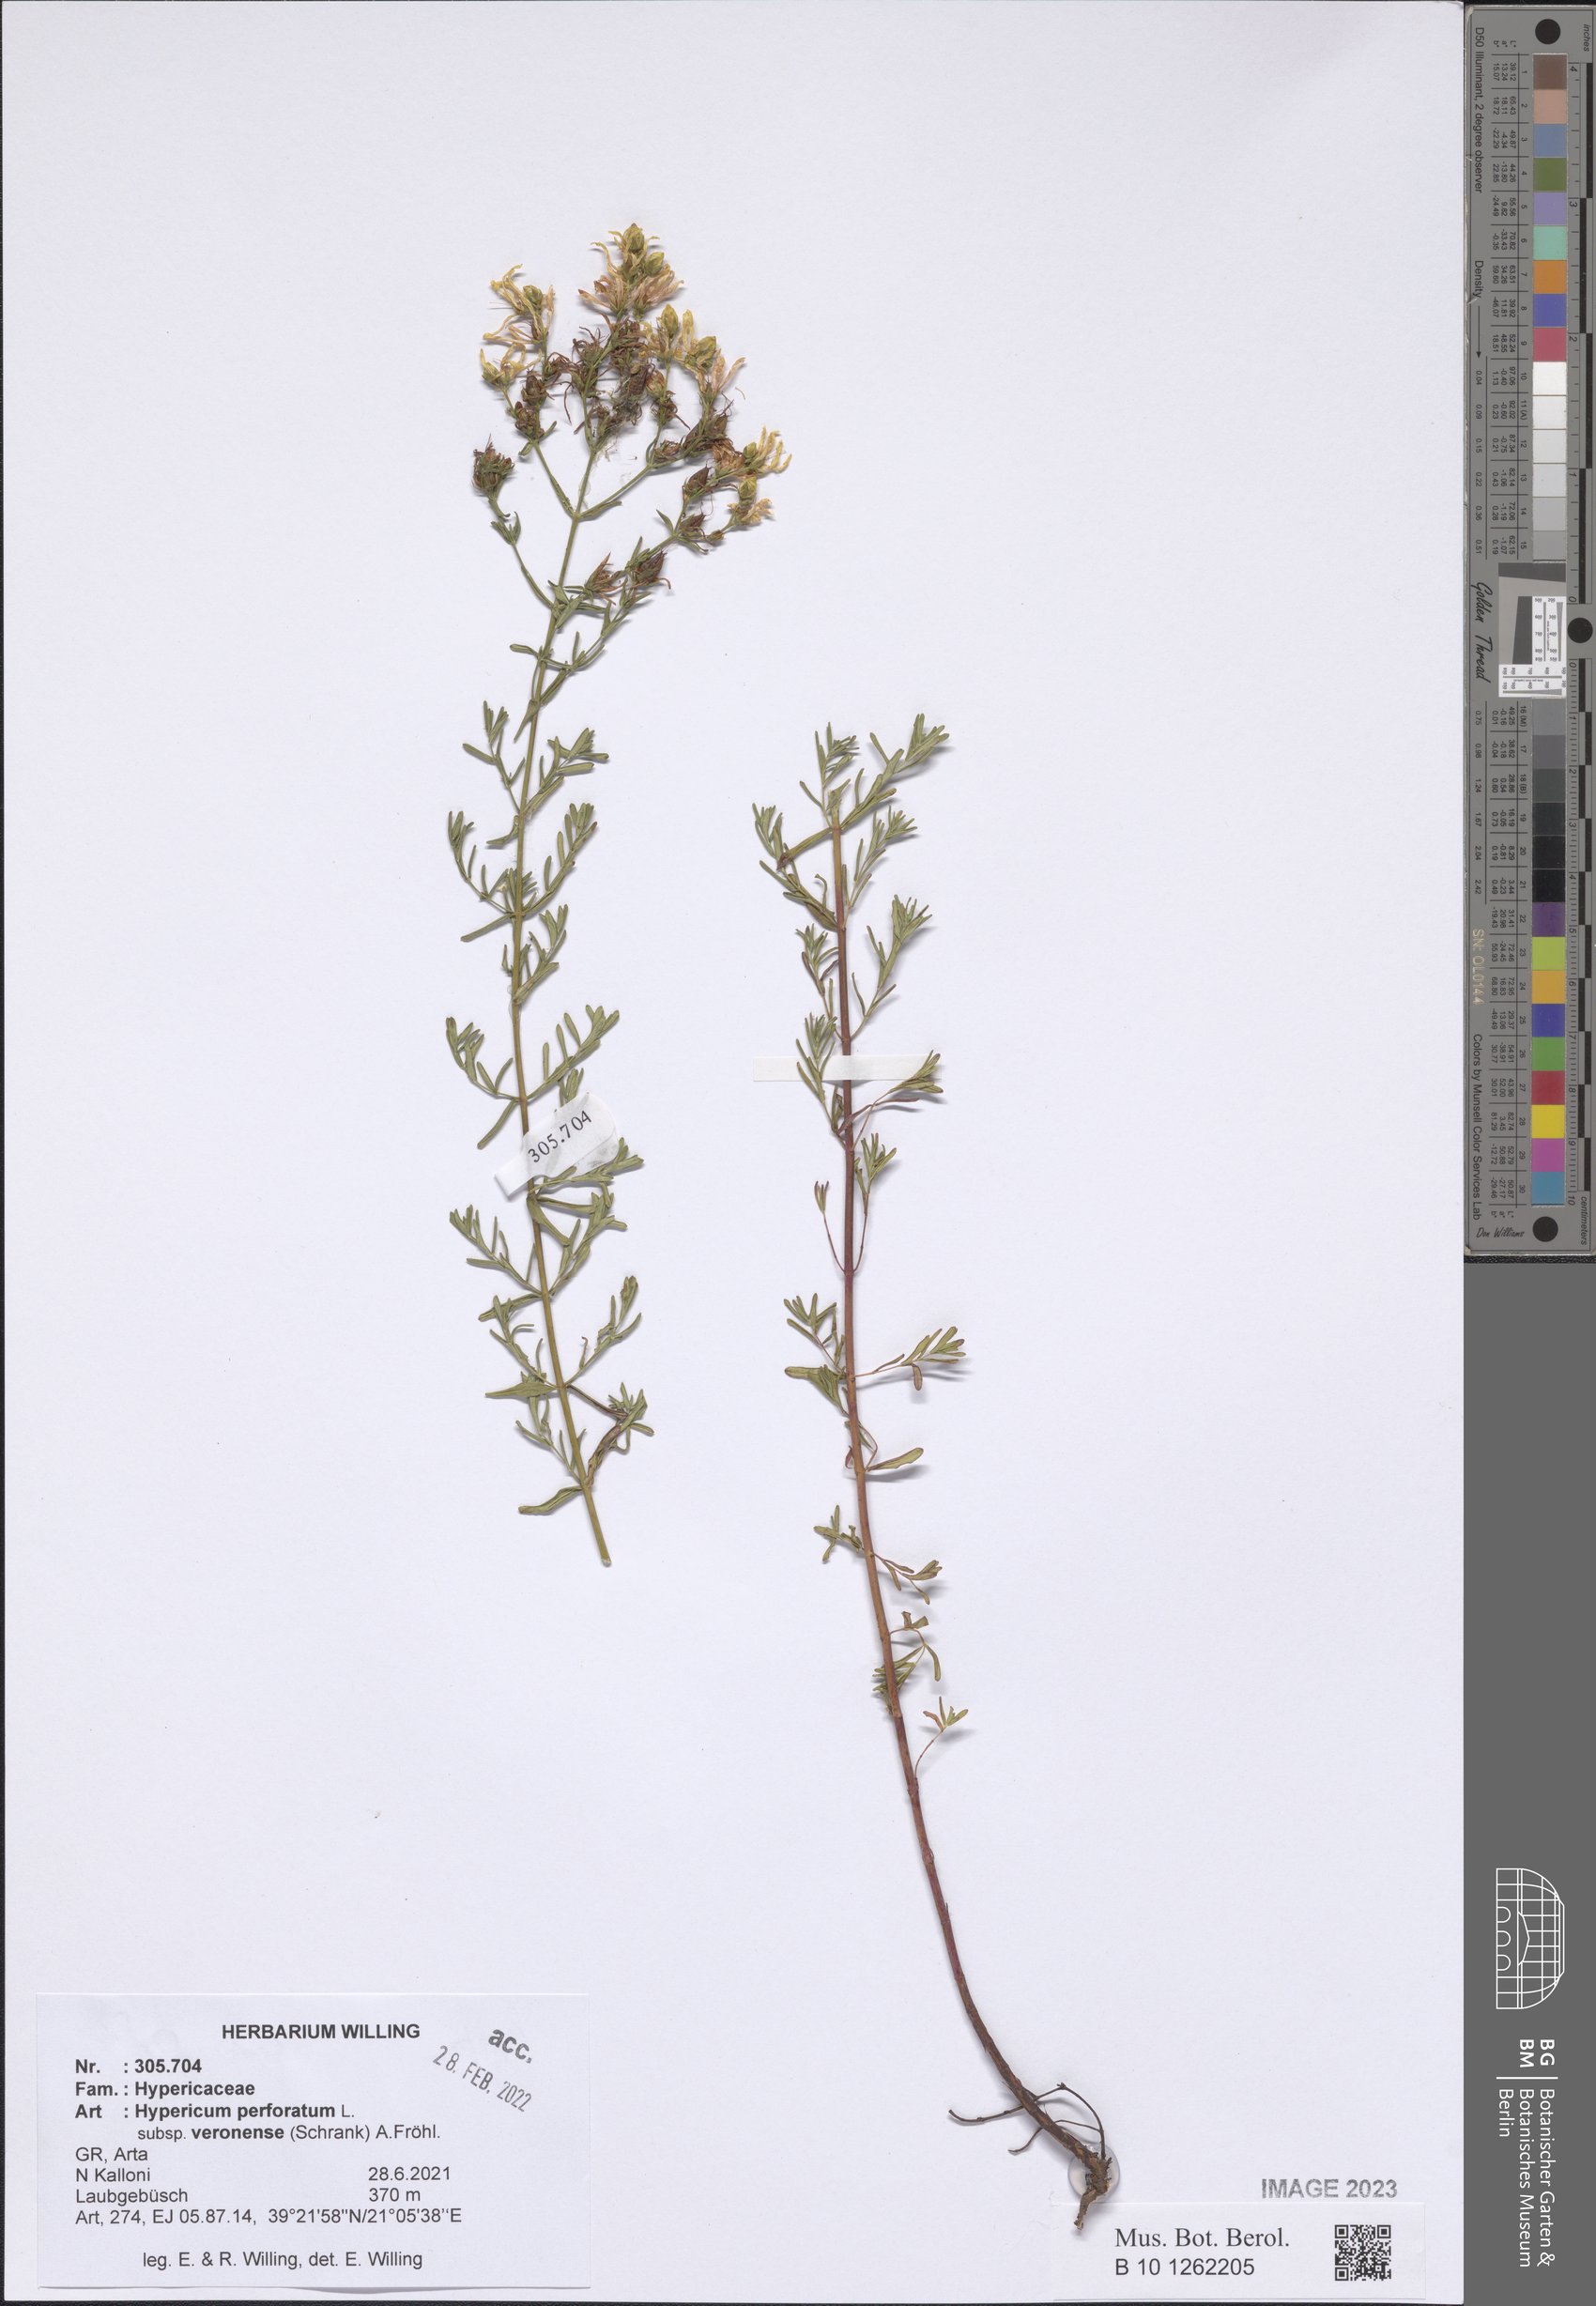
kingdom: Plantae
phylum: Tracheophyta
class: Magnoliopsida
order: Malpighiales
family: Hypericaceae
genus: Hypericum
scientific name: Hypericum veronense
